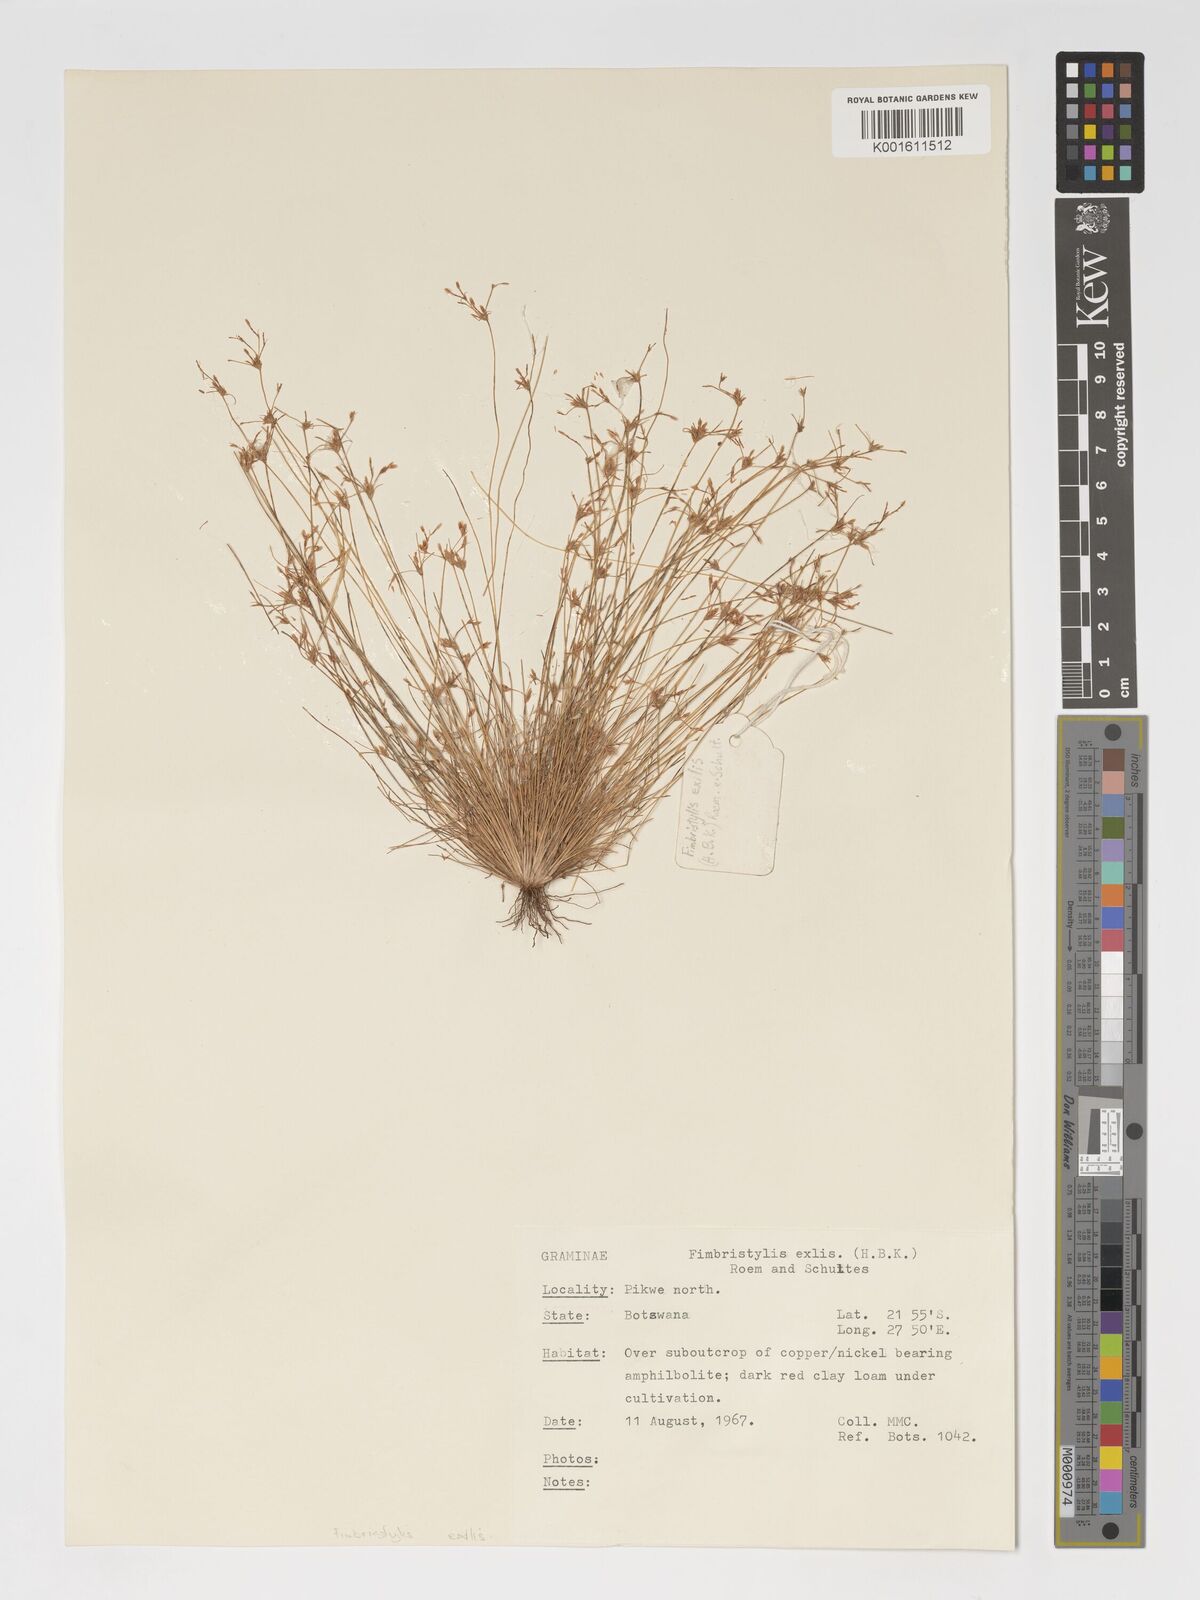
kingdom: Plantae
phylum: Tracheophyta
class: Liliopsida
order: Poales
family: Cyperaceae
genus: Bulbostylis
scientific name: Bulbostylis hispidula
